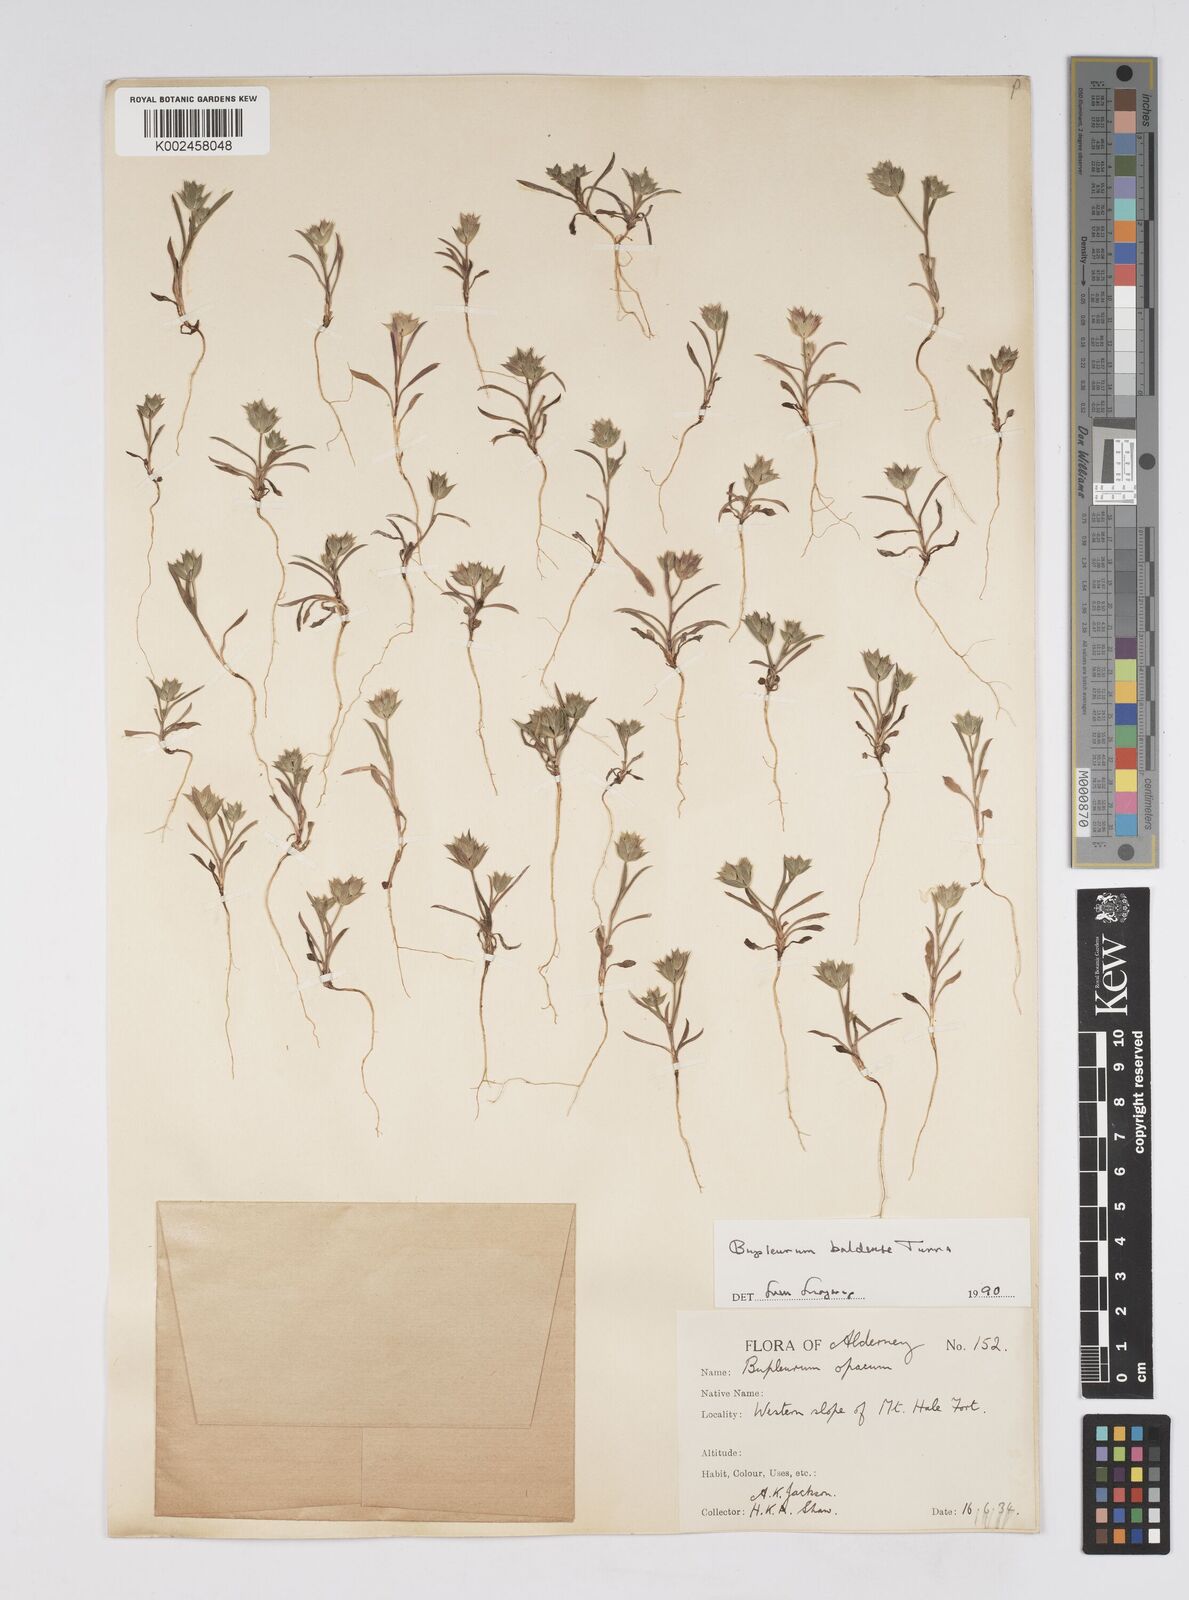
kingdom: Plantae
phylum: Tracheophyta
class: Magnoliopsida
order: Apiales
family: Apiaceae
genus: Bupleurum
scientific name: Bupleurum baldense
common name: Small hare's-ear
